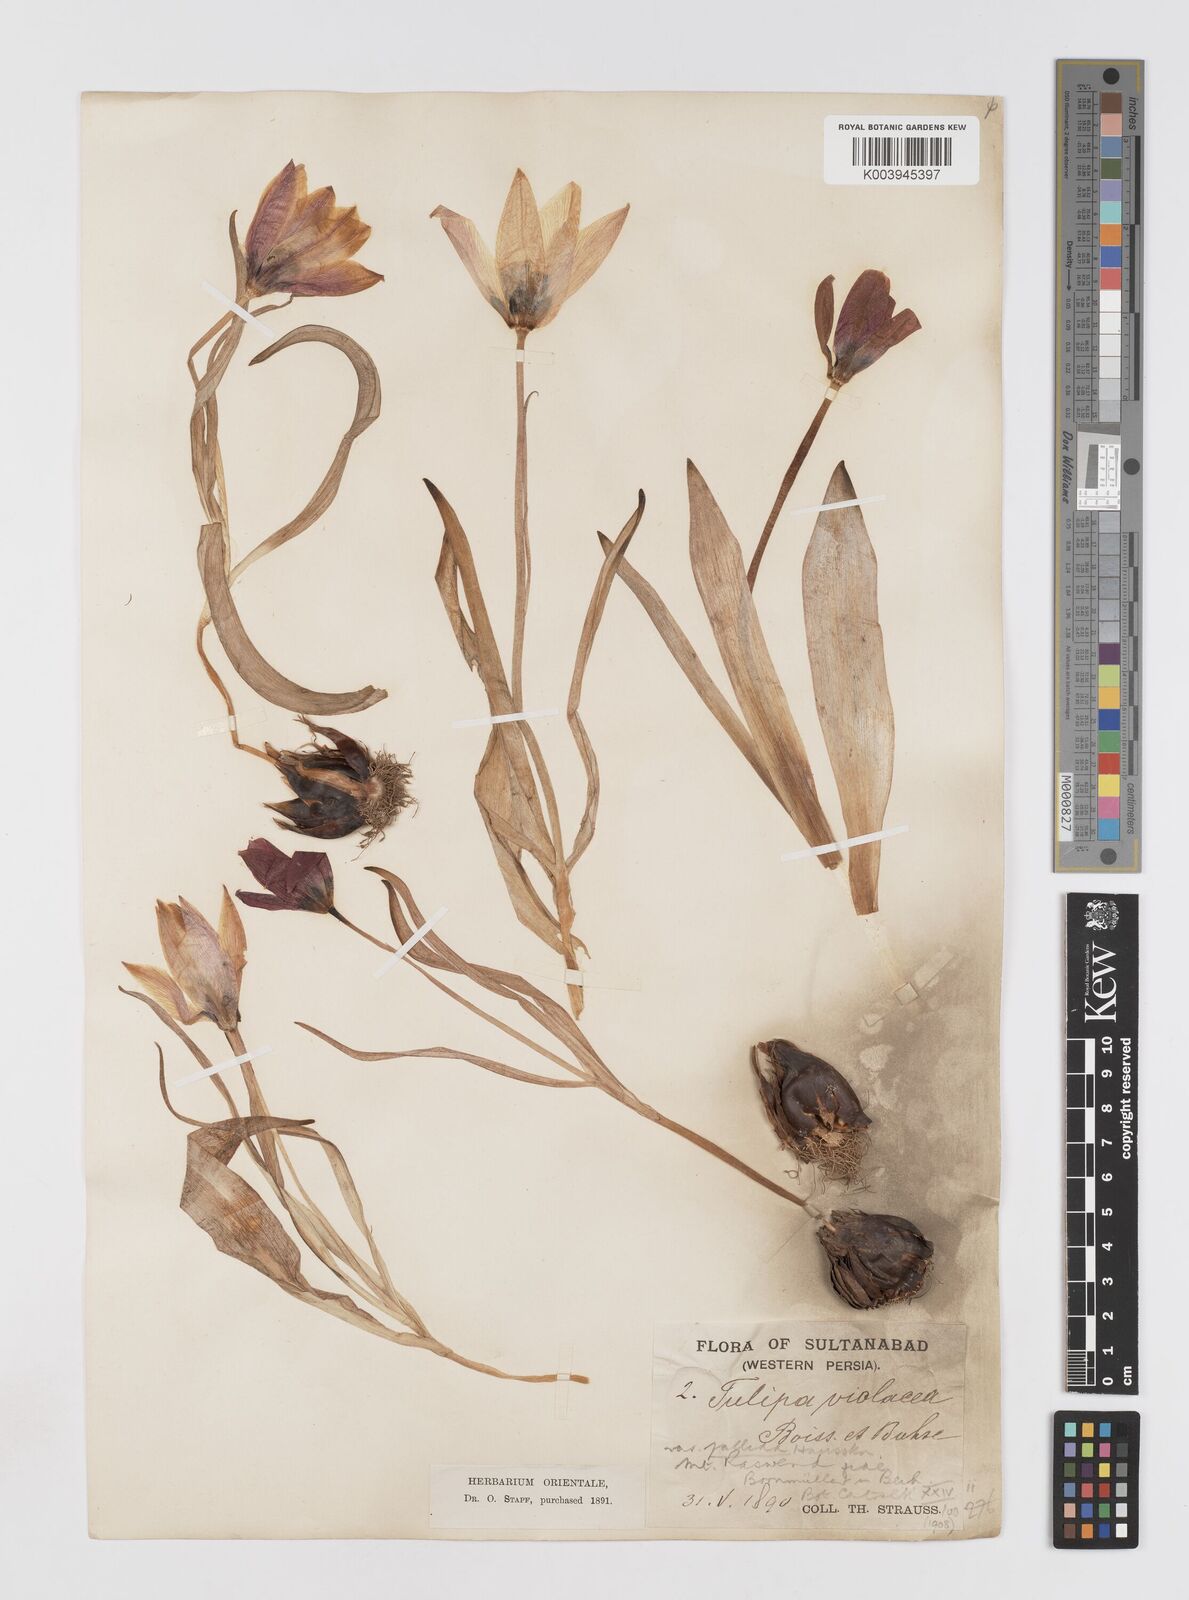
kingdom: Plantae
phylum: Tracheophyta
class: Liliopsida
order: Liliales
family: Liliaceae
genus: Tulipa
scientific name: Tulipa humilis
